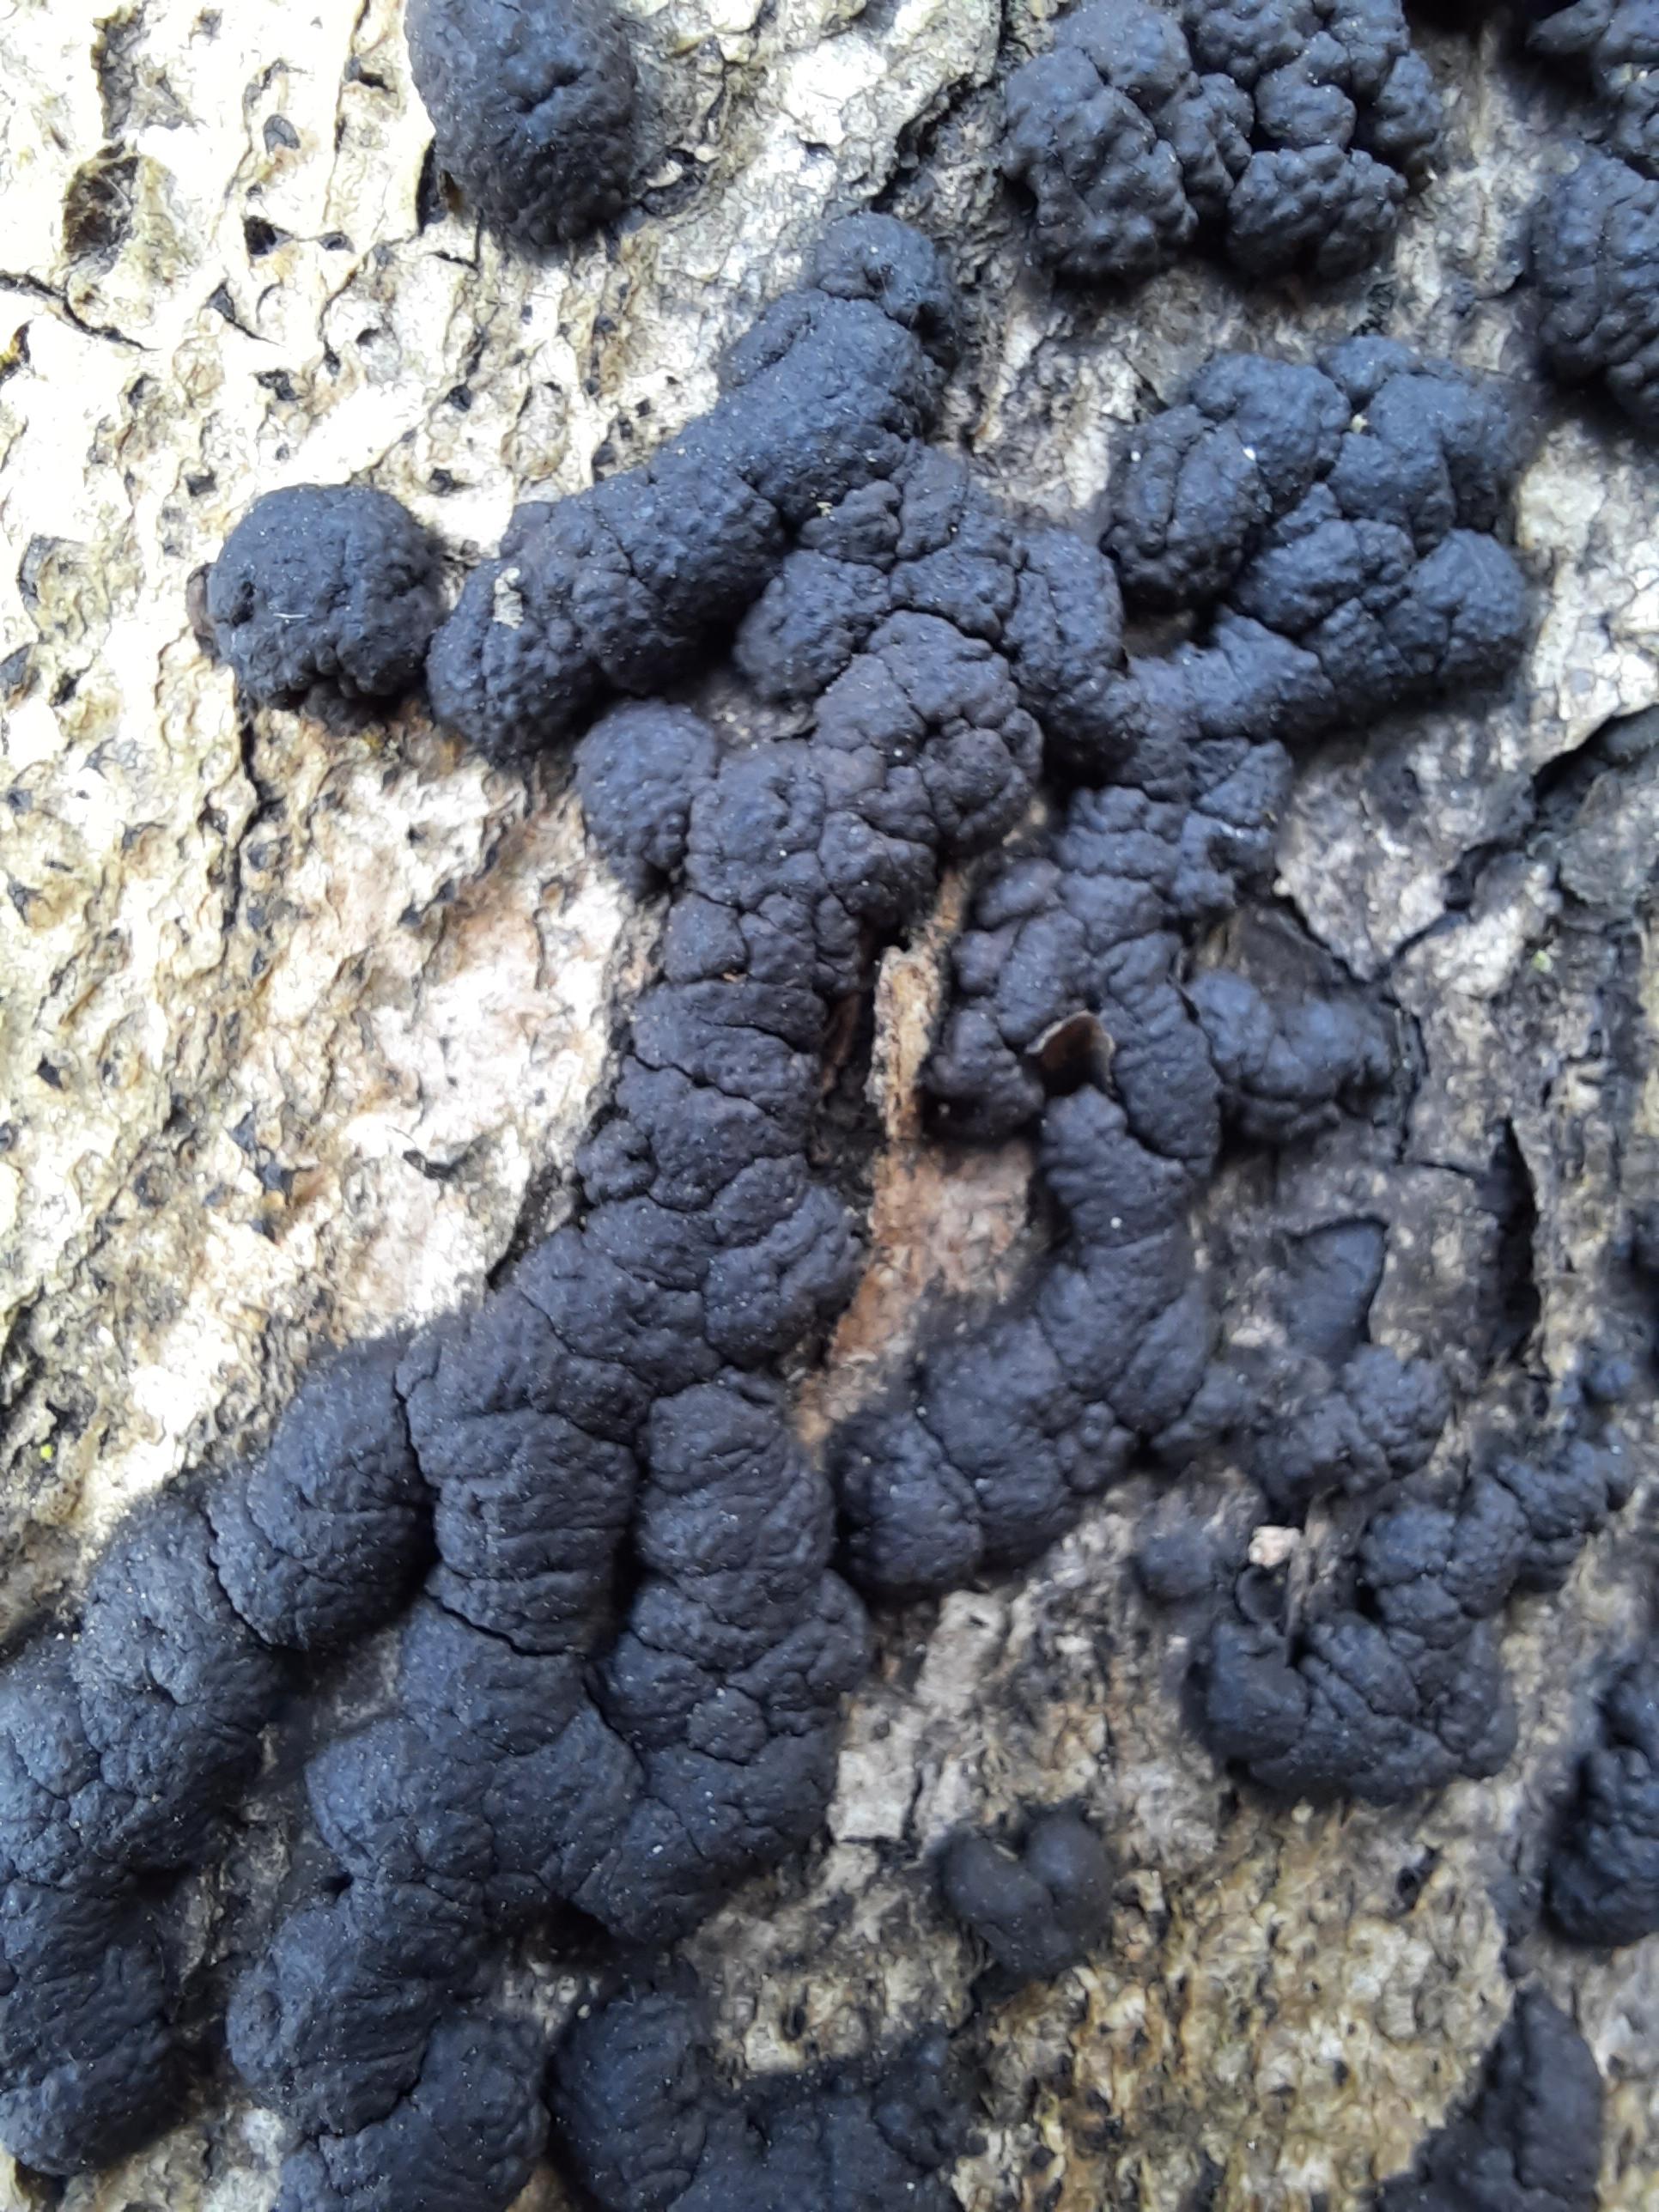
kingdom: Fungi
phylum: Ascomycota
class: Sordariomycetes
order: Xylariales
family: Hypoxylaceae
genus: Jackrogersella
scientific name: Jackrogersella cohaerens
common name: sammenflydende kulbær
